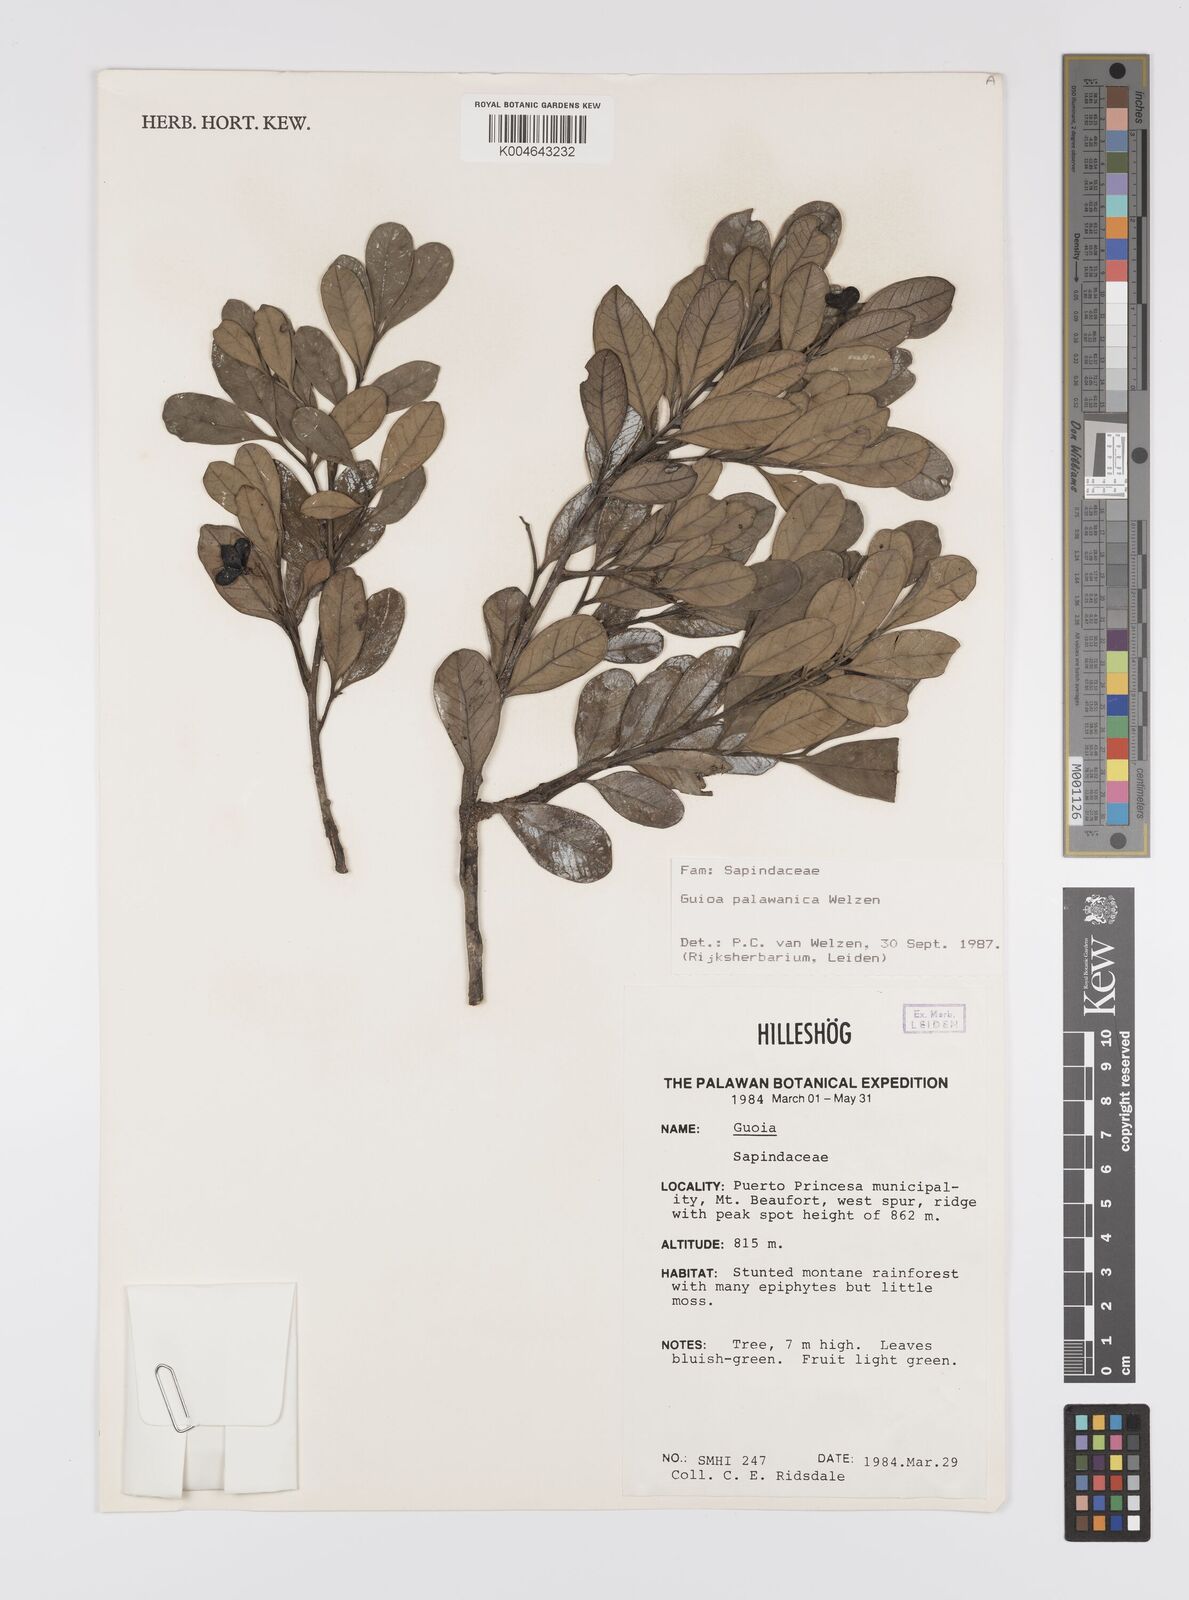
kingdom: Plantae
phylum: Tracheophyta
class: Magnoliopsida
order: Sapindales
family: Sapindaceae
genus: Guioa
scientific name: Guioa palawanica
